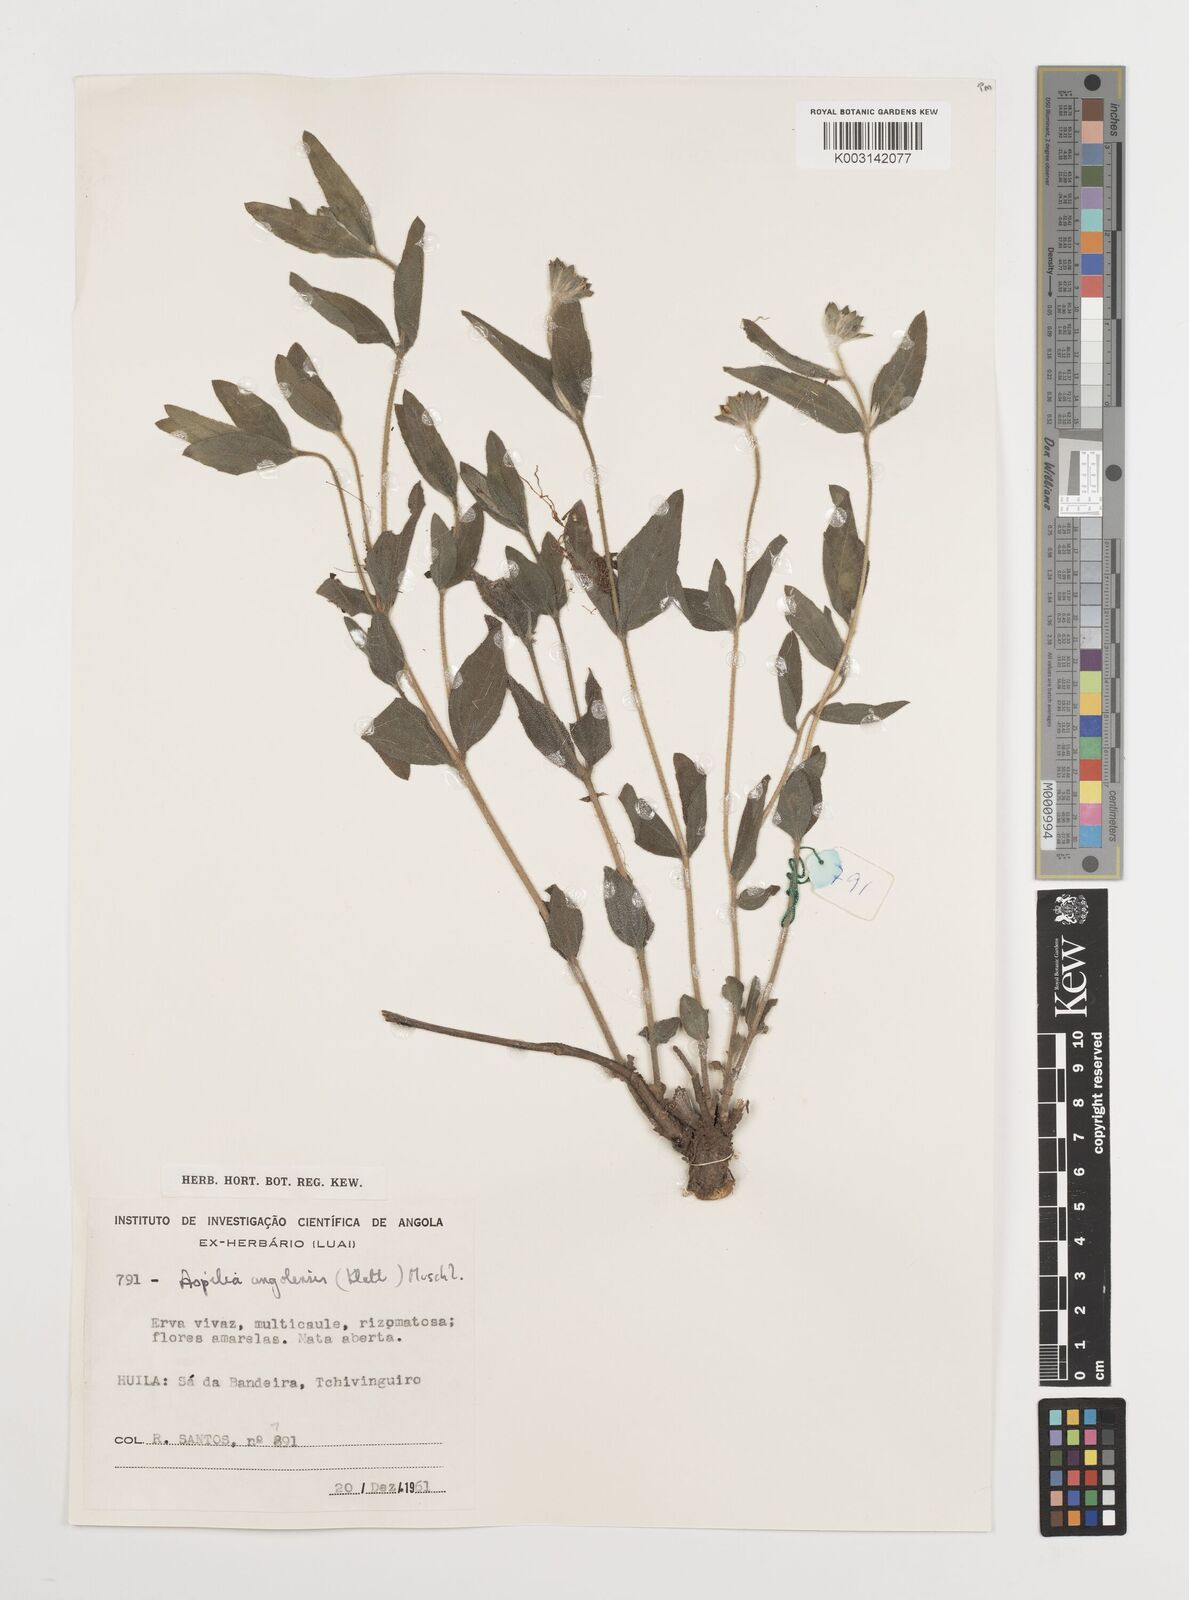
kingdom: Plantae
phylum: Tracheophyta
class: Magnoliopsida
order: Asterales
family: Asteraceae
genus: Aspilia
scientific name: Aspilia angolensis
